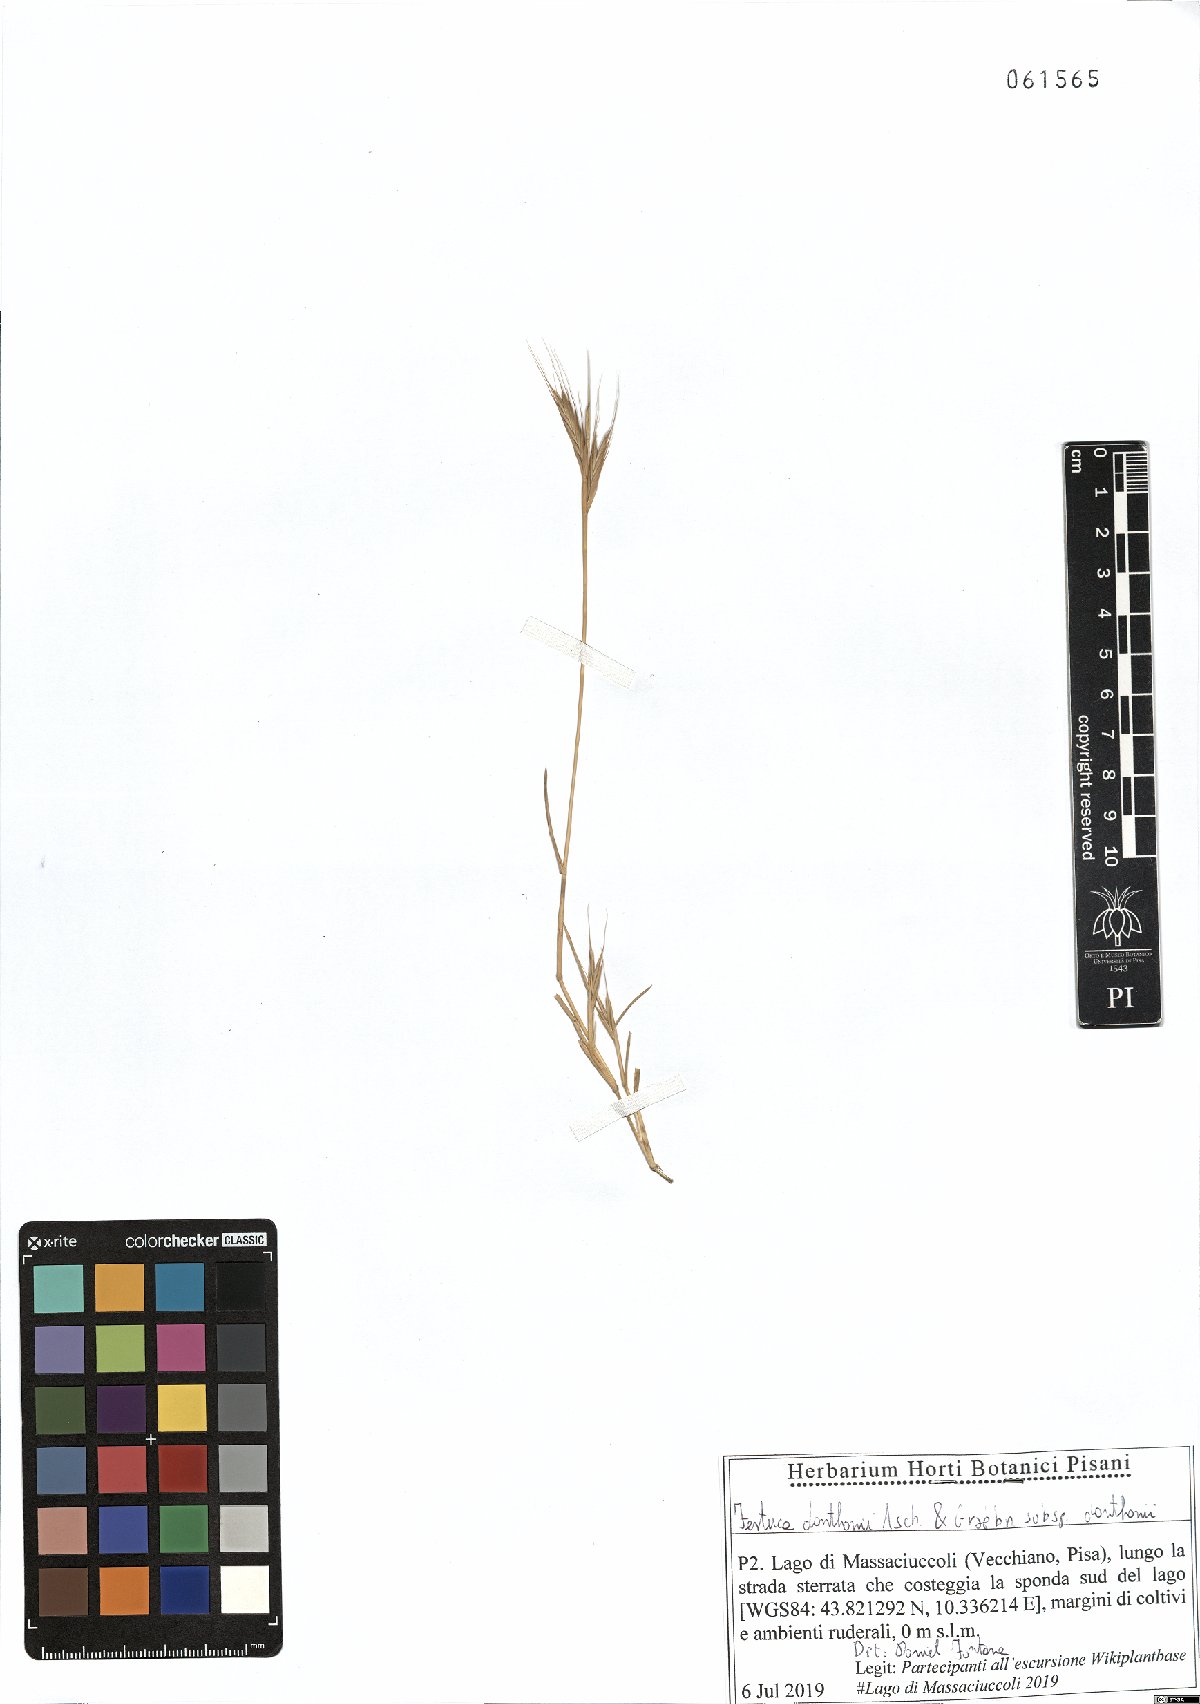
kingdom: Plantae
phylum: Tracheophyta
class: Liliopsida
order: Poales
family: Poaceae
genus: Festuca
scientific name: Festuca ambigua
